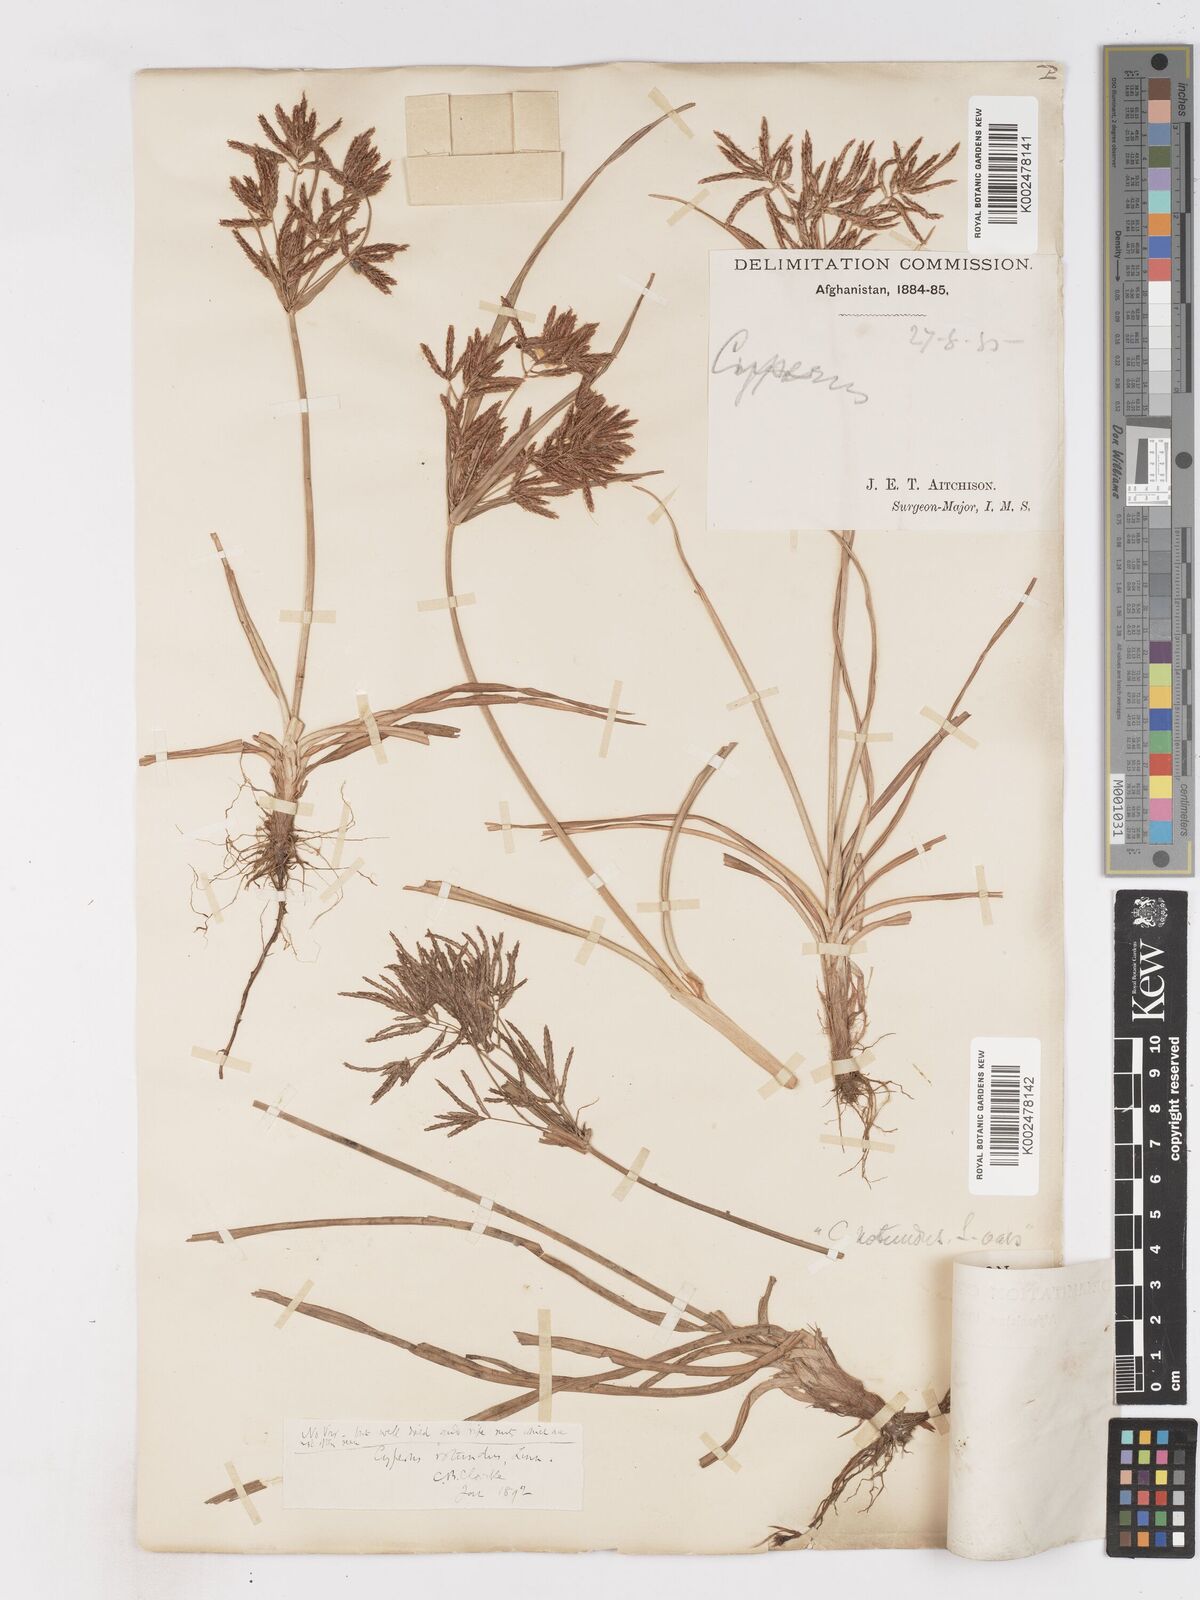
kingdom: Plantae
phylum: Tracheophyta
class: Liliopsida
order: Poales
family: Cyperaceae
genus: Cyperus
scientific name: Cyperus rotundus
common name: Nutgrass
